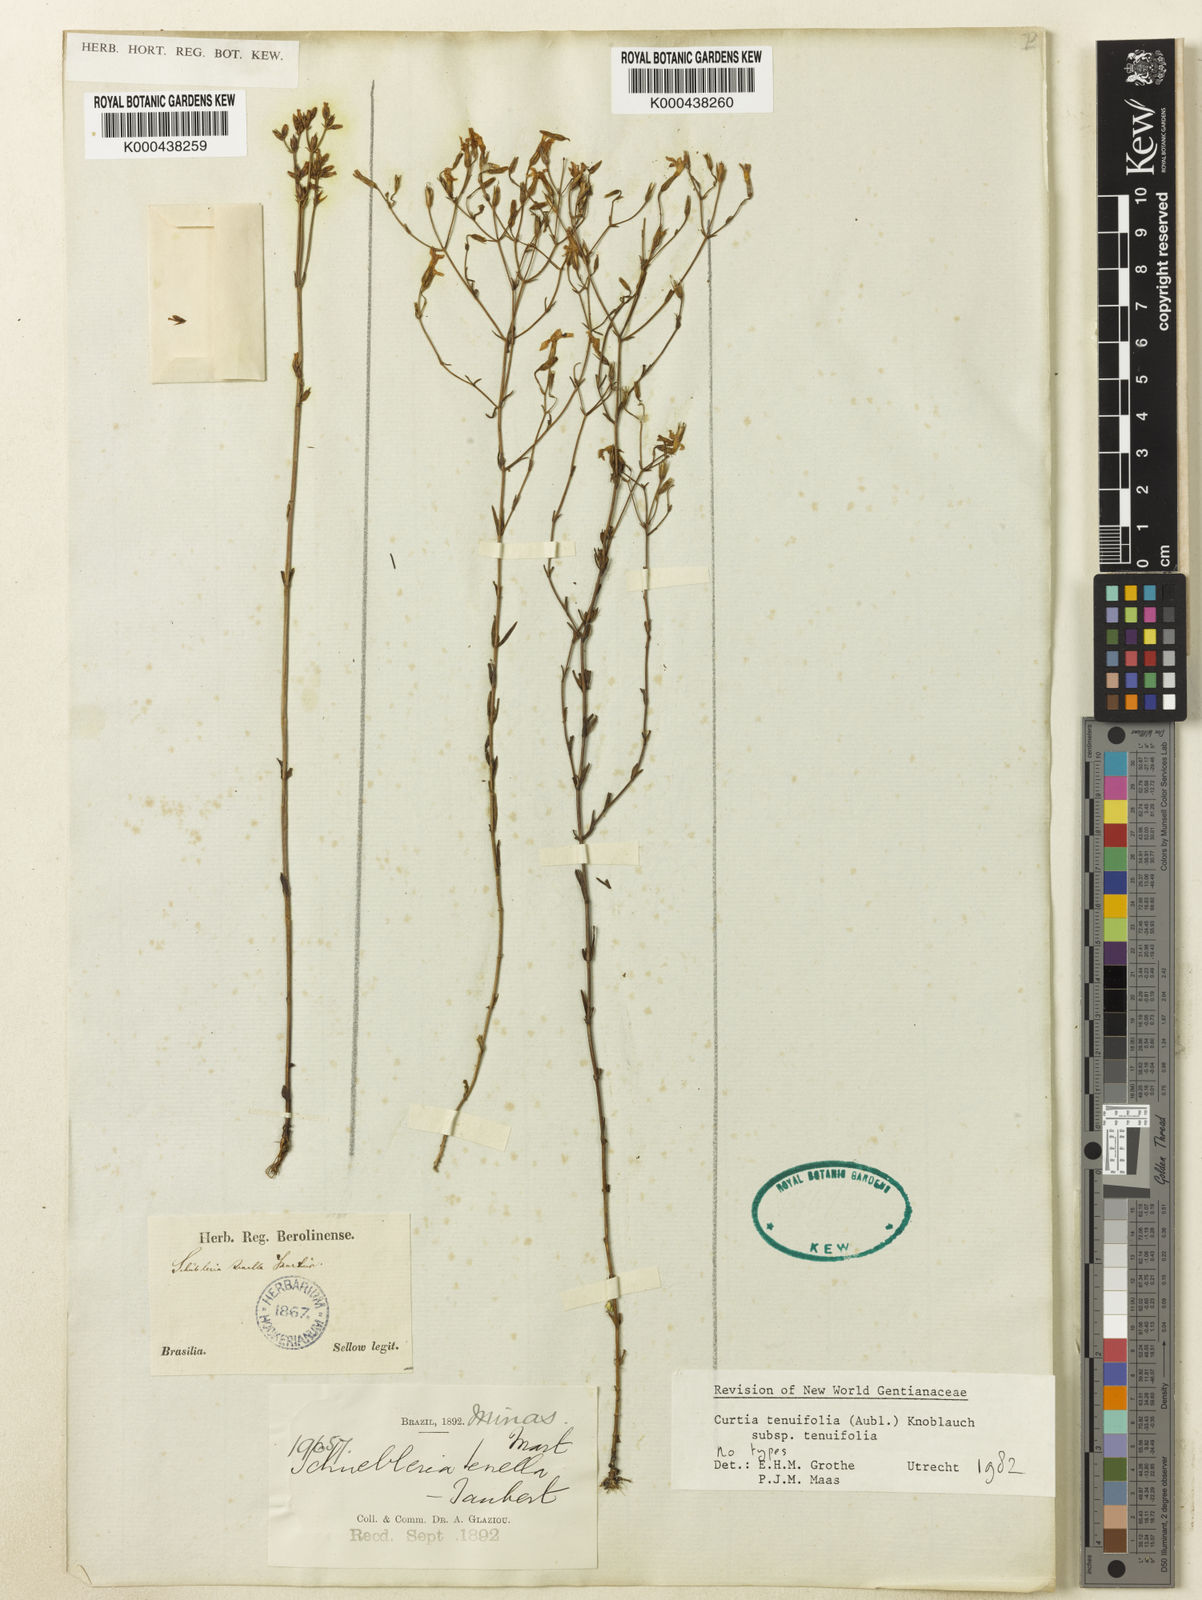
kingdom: Plantae
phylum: Tracheophyta
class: Magnoliopsida
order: Gentianales
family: Gentianaceae
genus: Curtia
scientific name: Curtia tenuifolia
